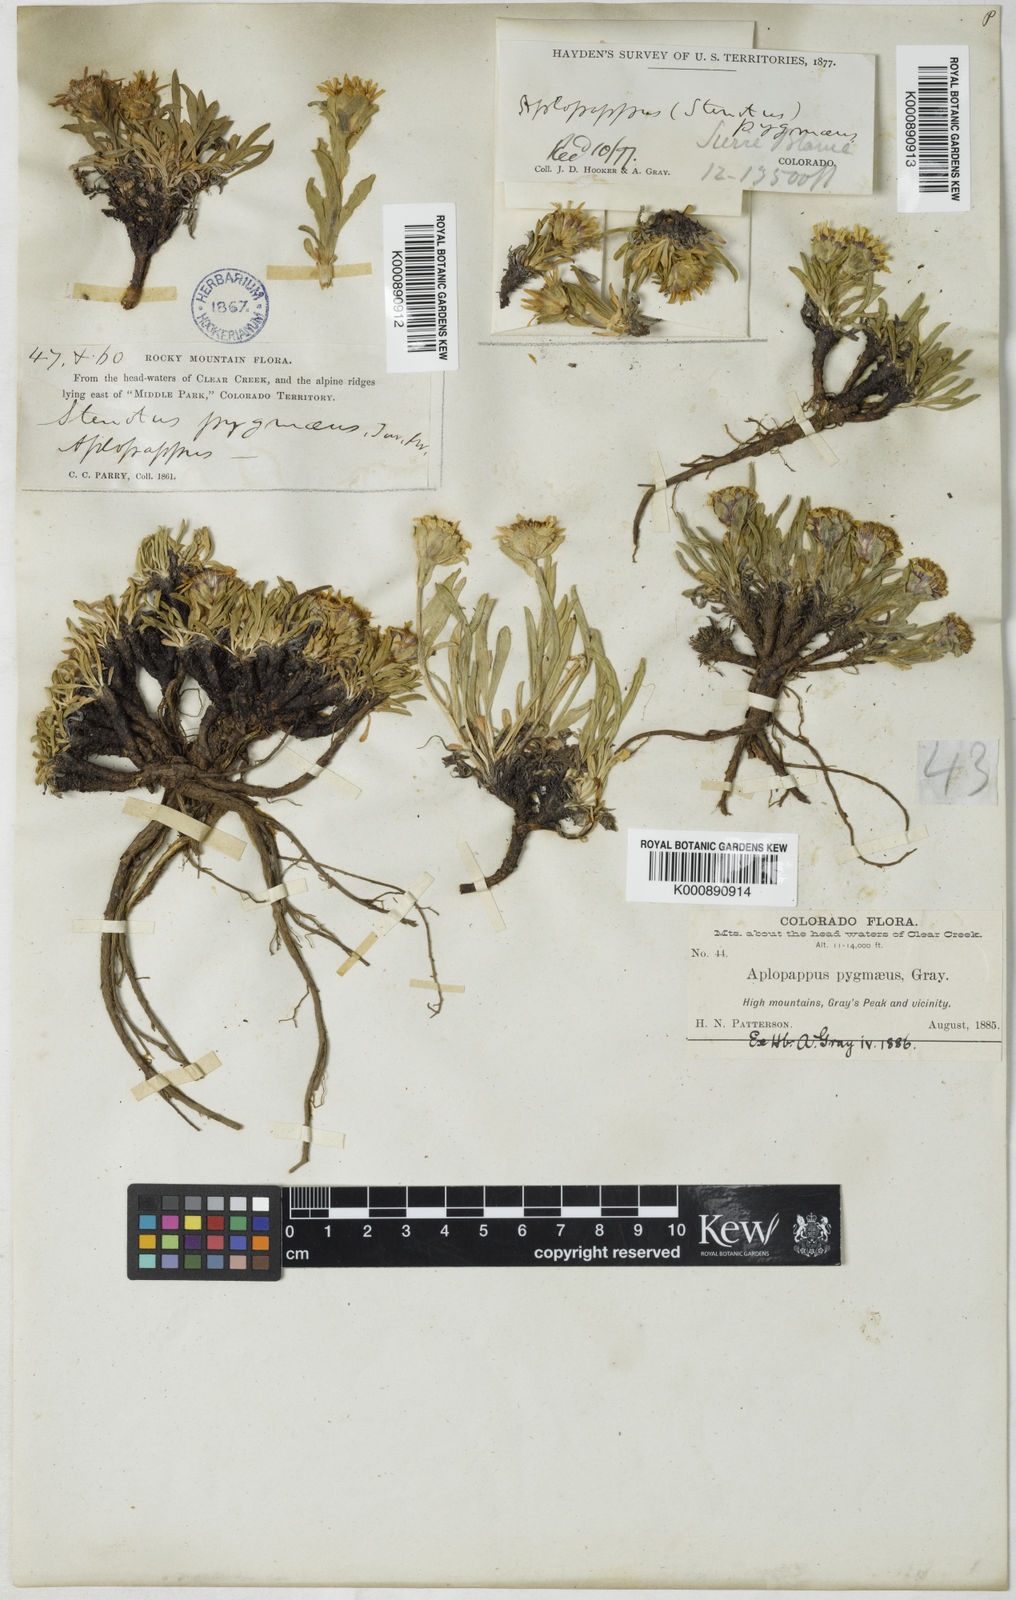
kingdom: Plantae
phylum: Tracheophyta
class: Magnoliopsida
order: Asterales
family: Asteraceae
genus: Tonestus
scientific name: Tonestus pygmaeus
